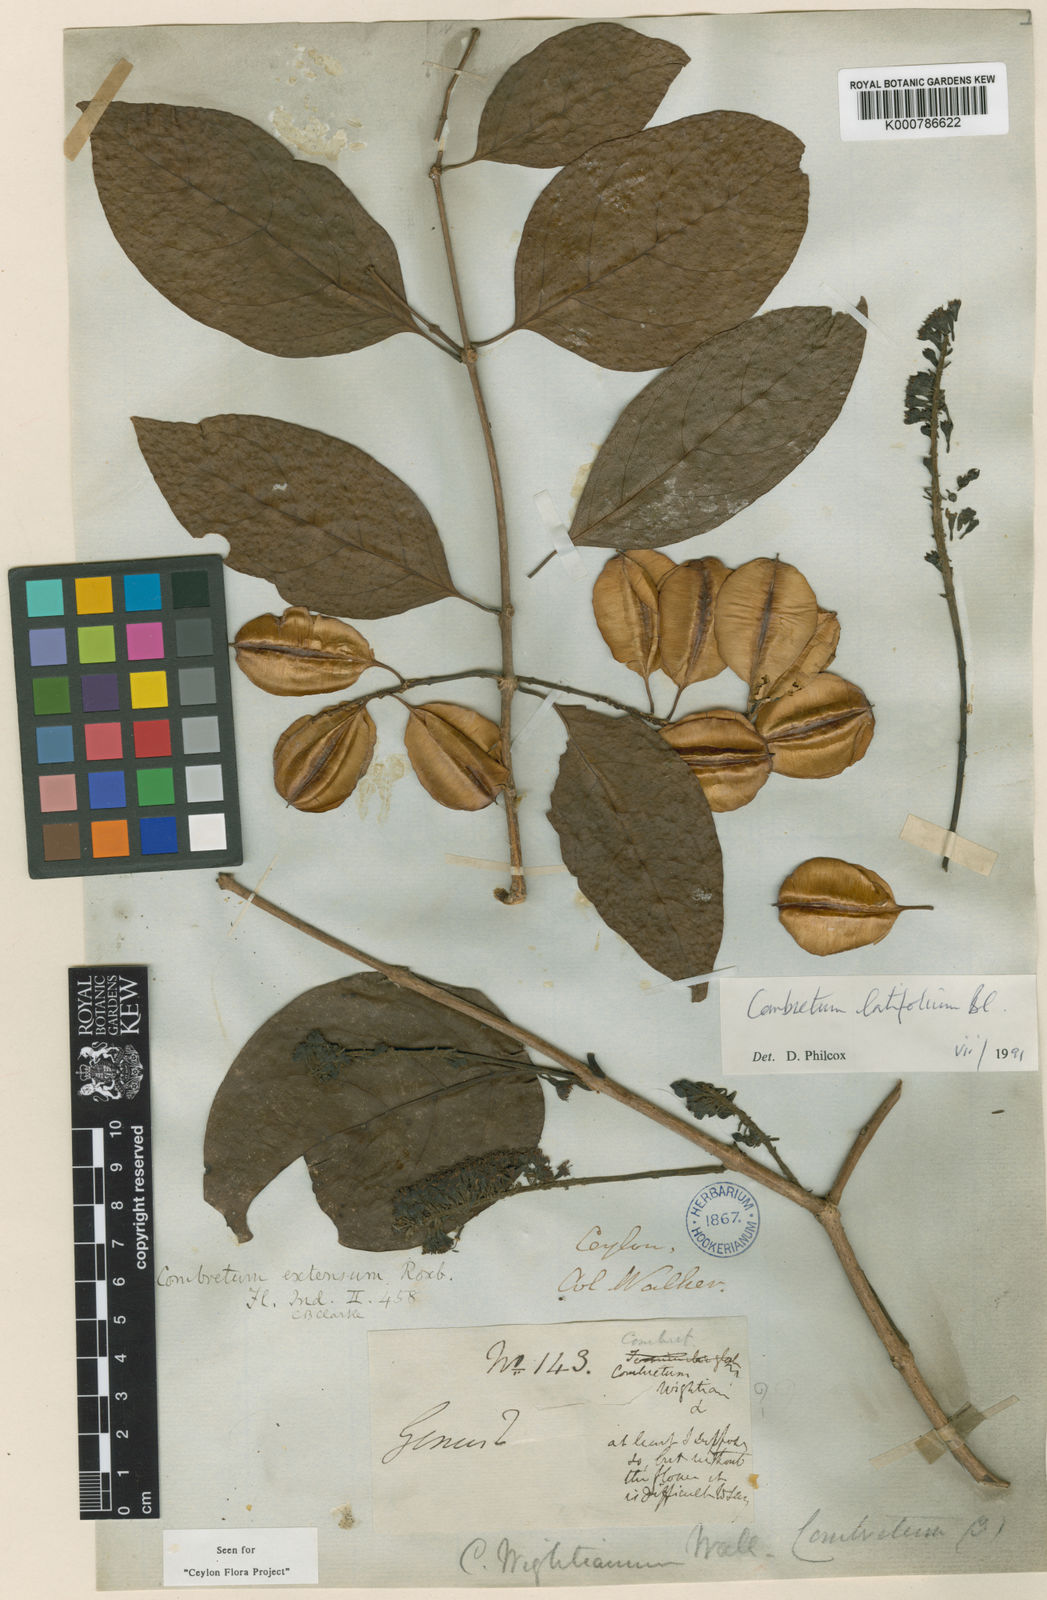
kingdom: Plantae
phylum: Tracheophyta
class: Magnoliopsida
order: Myrtales
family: Combretaceae
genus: Combretum
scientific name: Combretum latifolium
